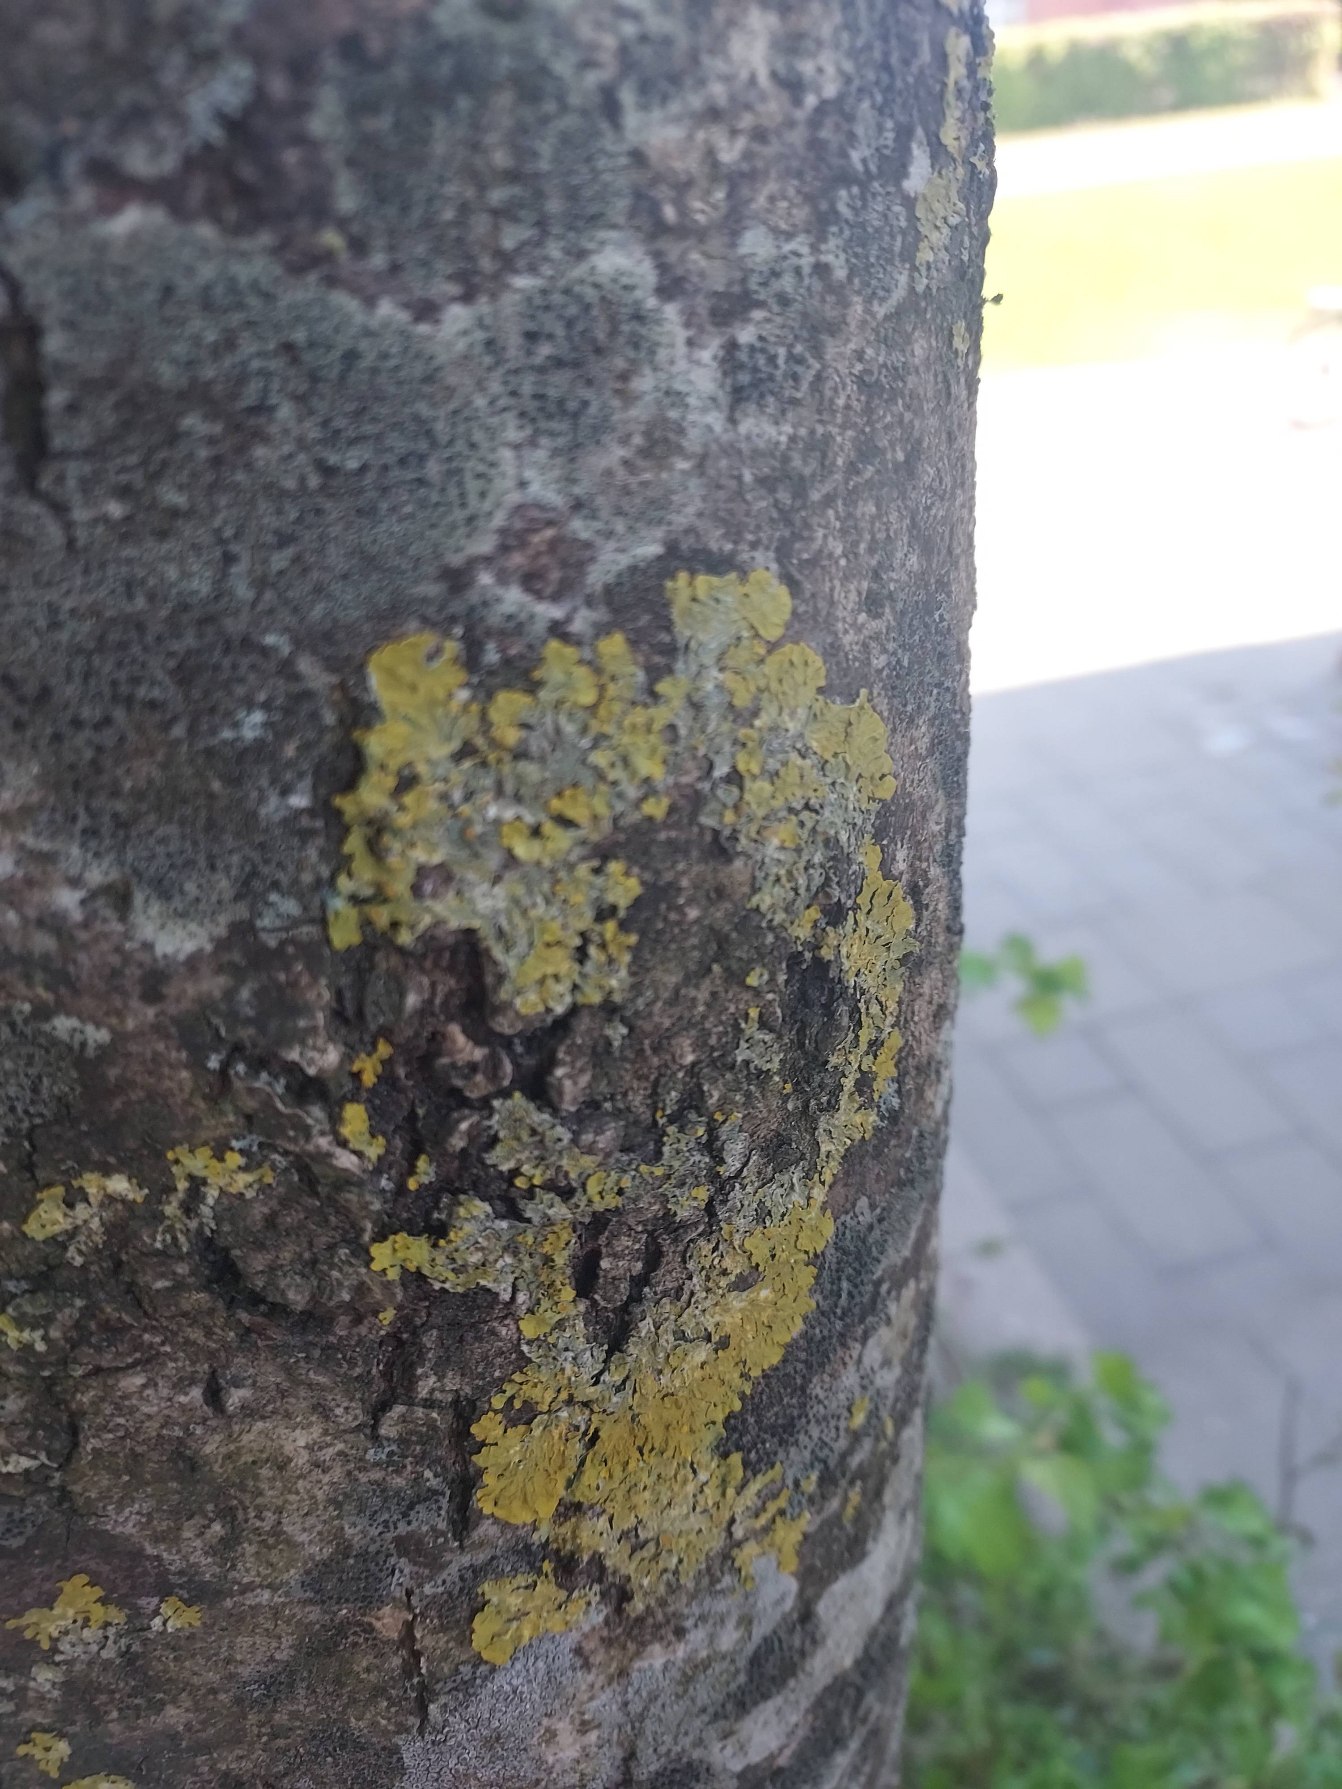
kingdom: Fungi
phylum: Ascomycota
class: Lecanoromycetes
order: Lecanorales
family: Lecanoraceae
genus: Lecidella
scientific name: Lecidella elaeochroma
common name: Grågrøn skivelav
